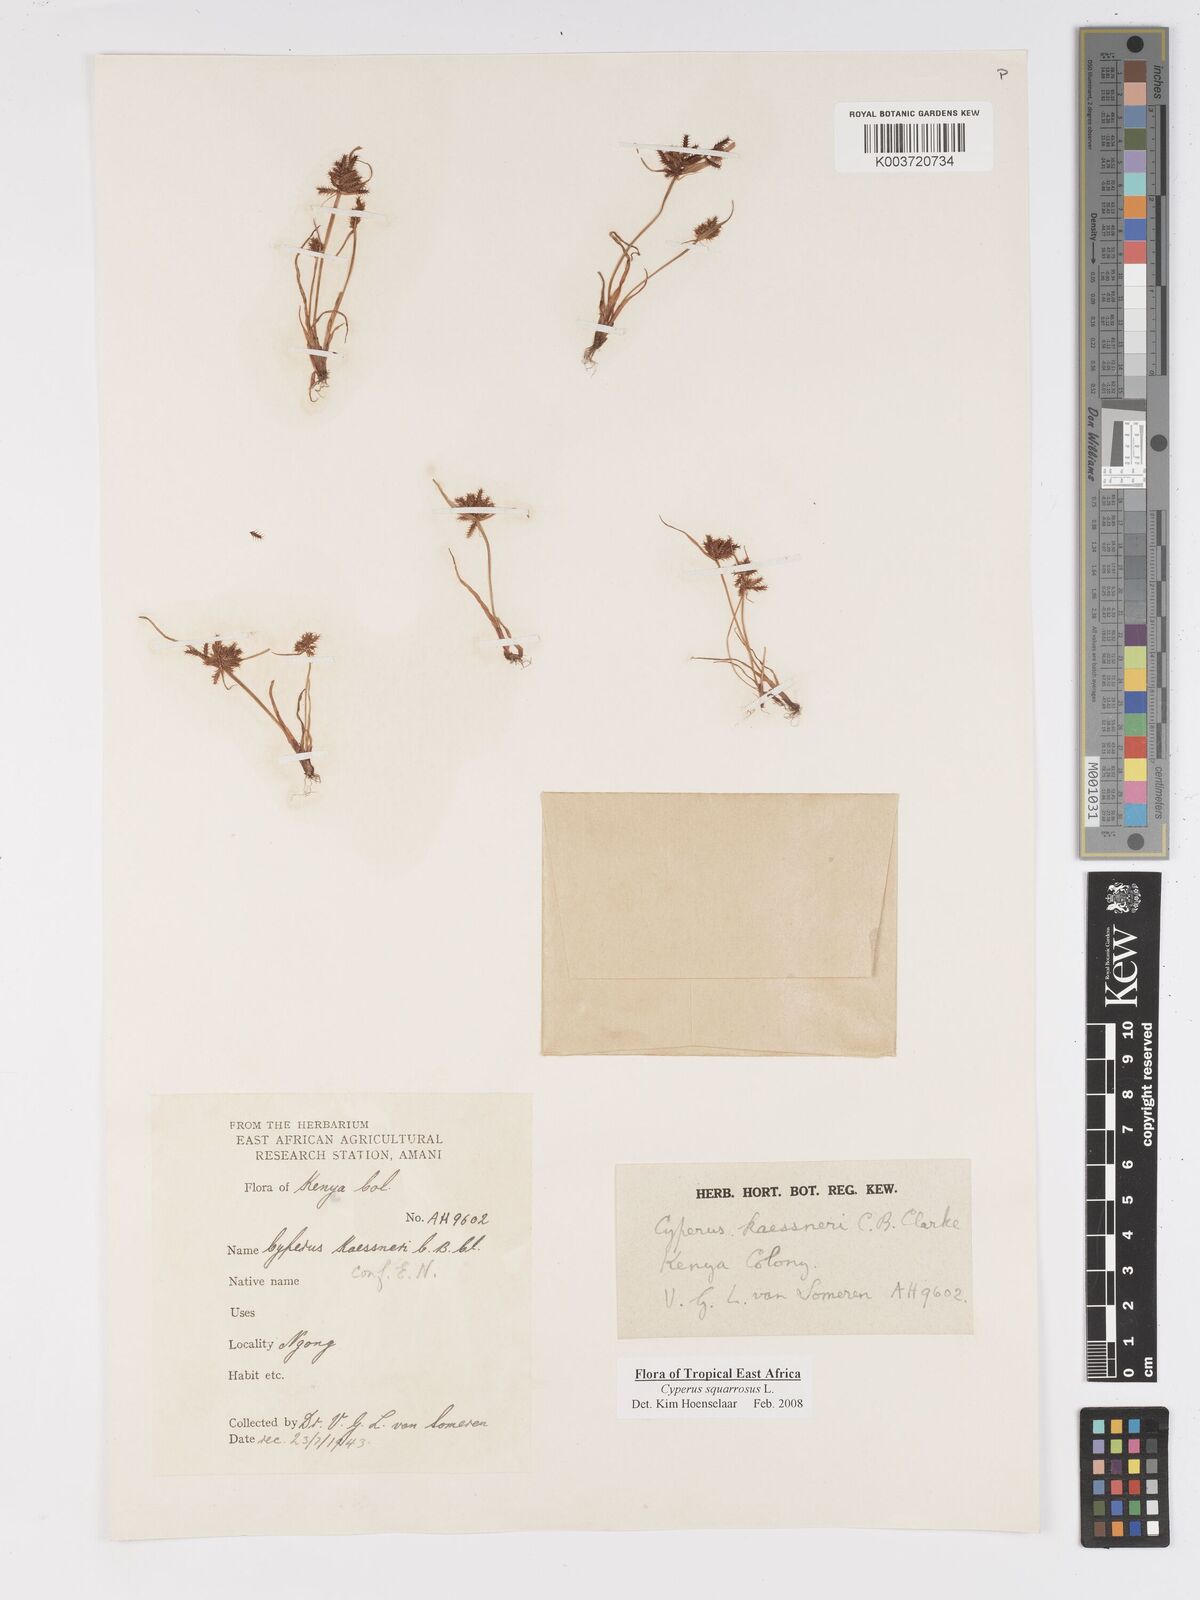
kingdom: Plantae
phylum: Tracheophyta
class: Liliopsida
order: Poales
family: Cyperaceae
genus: Cyperus
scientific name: Cyperus squarrosus
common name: Awned cyperus
